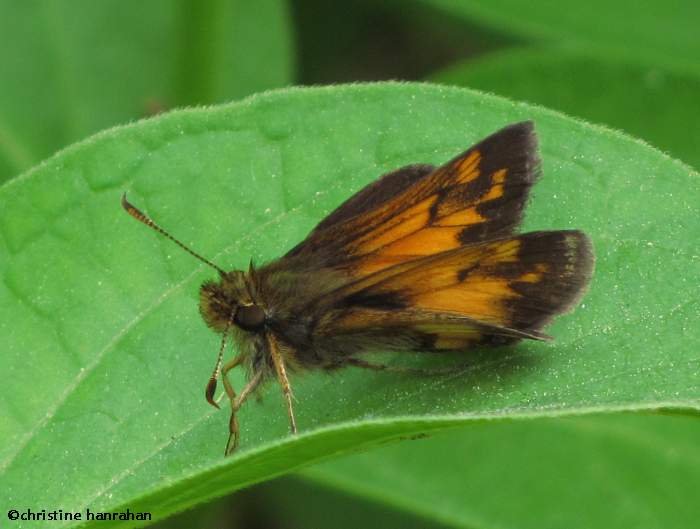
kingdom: Animalia
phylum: Arthropoda
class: Insecta
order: Lepidoptera
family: Hesperiidae
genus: Lon
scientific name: Lon hobomok
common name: Hobomok Skipper
